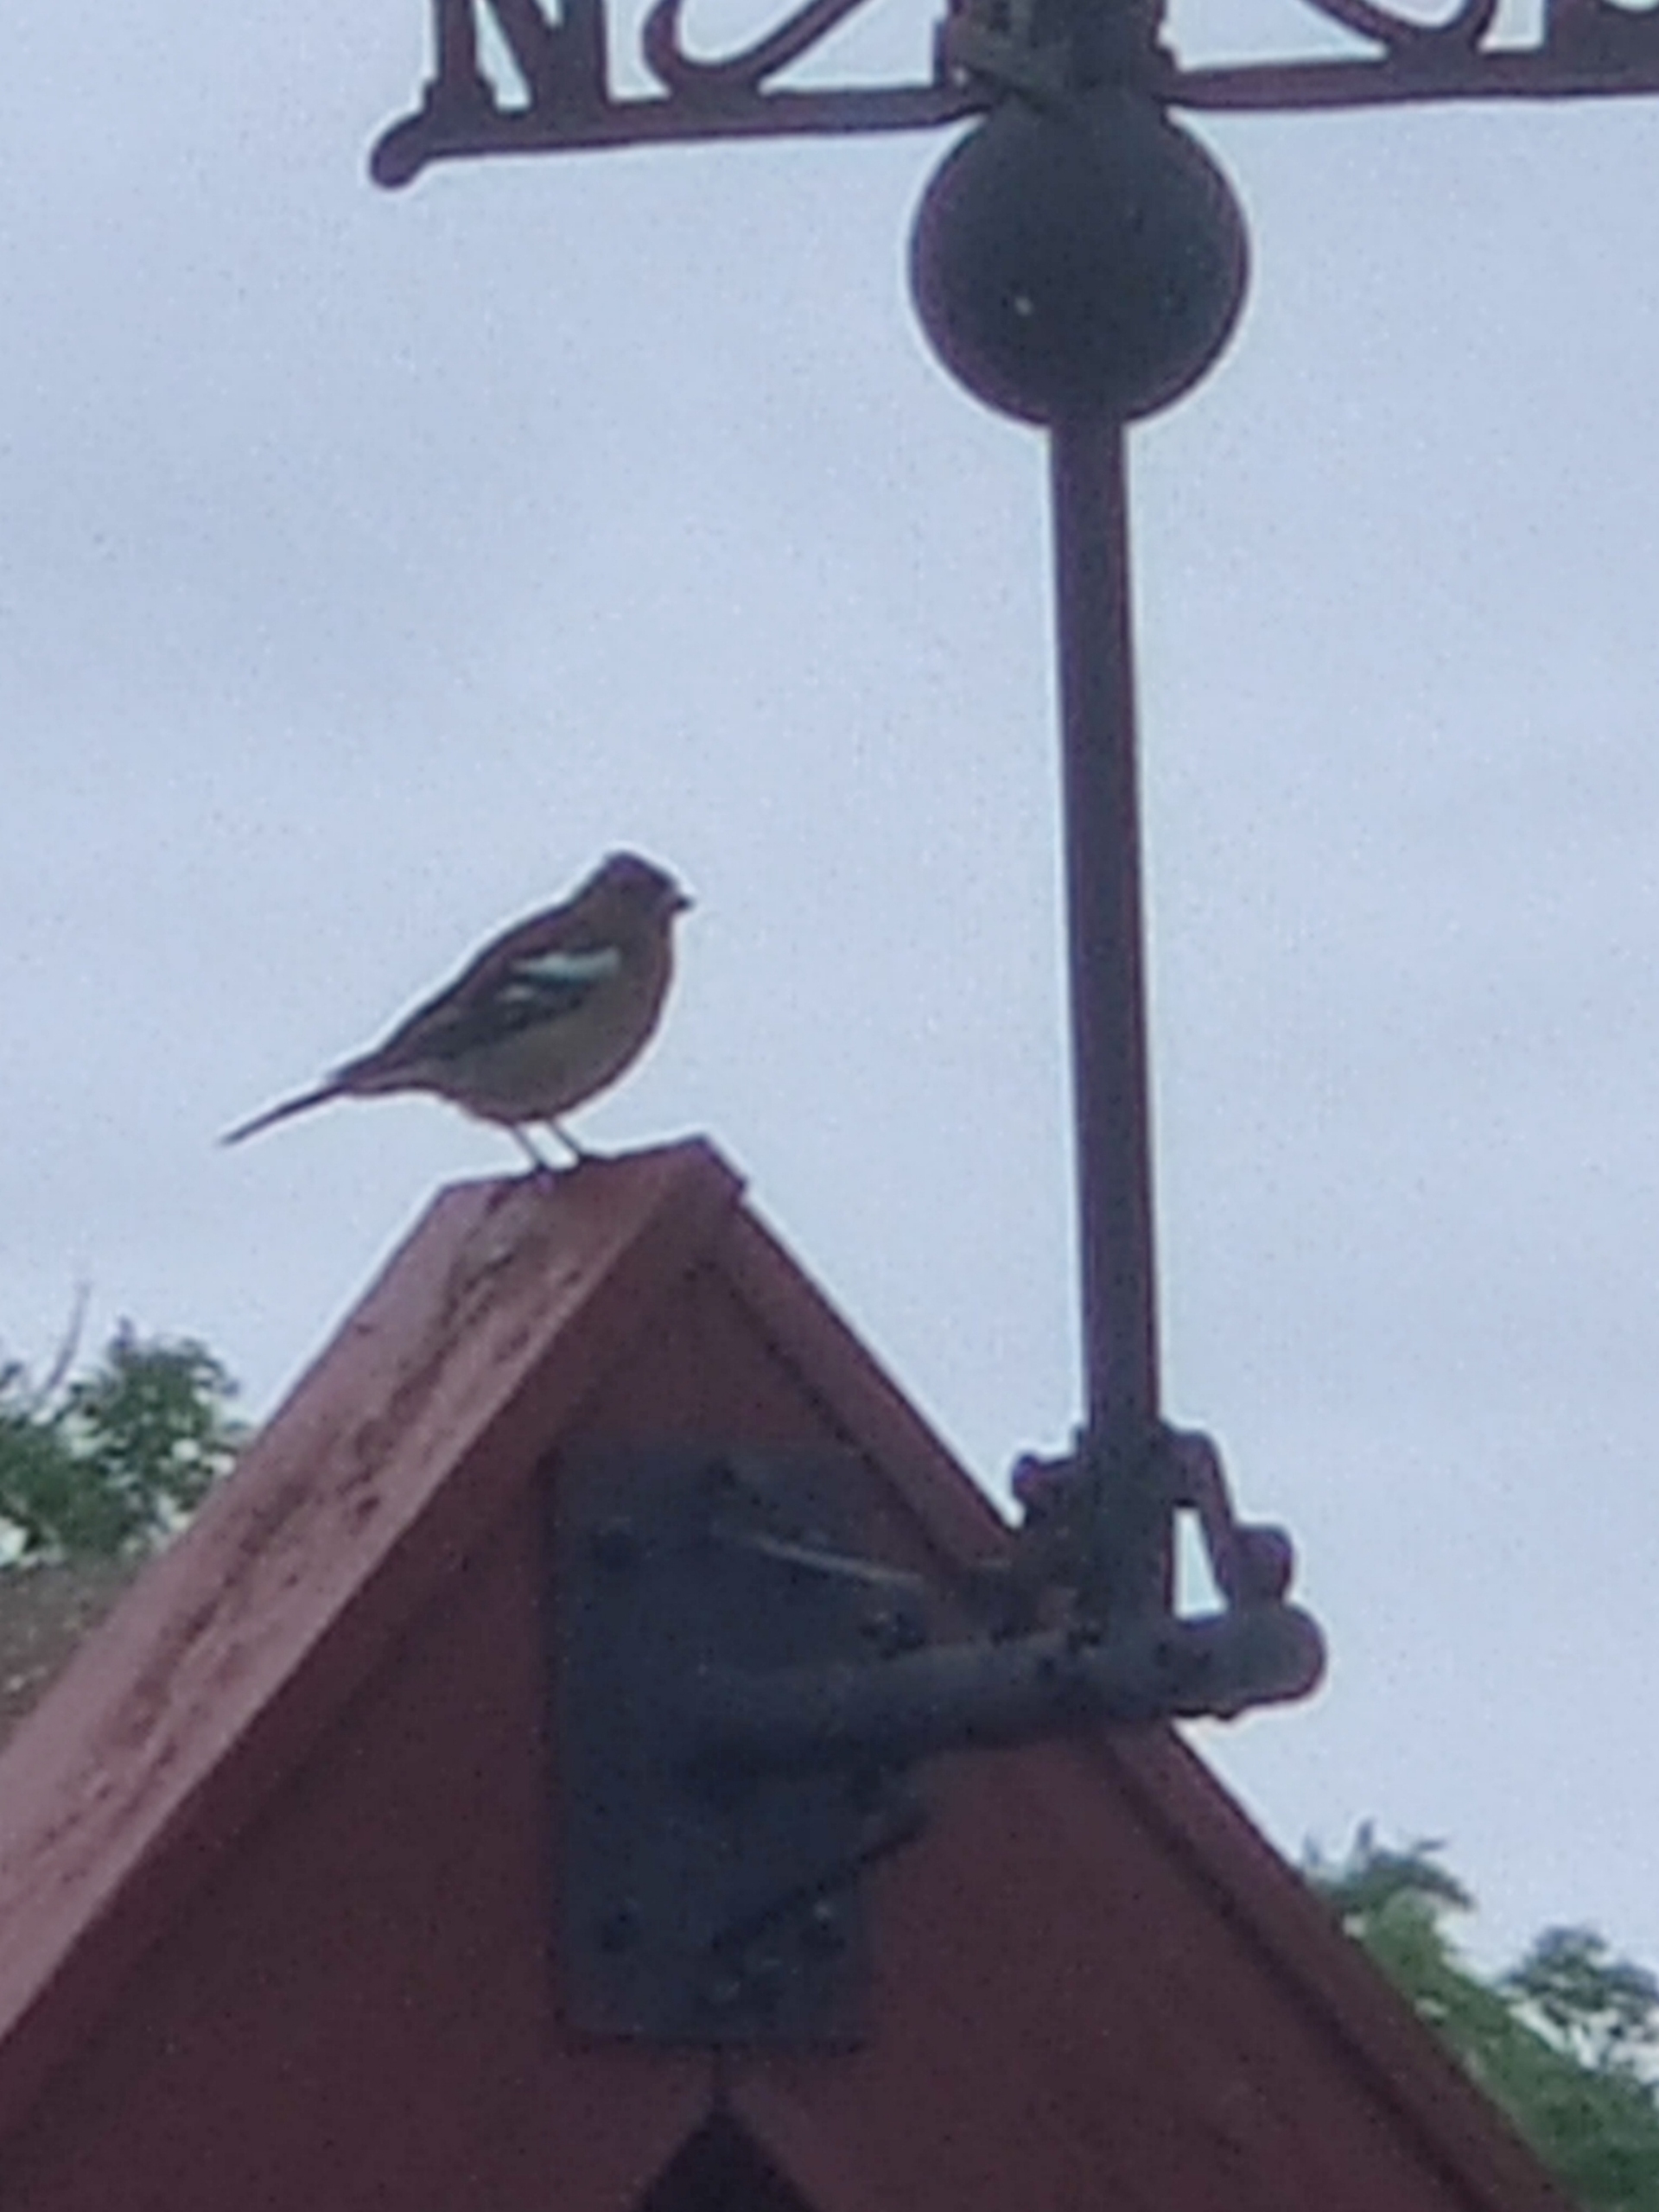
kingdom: Animalia
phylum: Chordata
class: Aves
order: Passeriformes
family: Fringillidae
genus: Fringilla
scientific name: Fringilla coelebs
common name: Bogfinke
